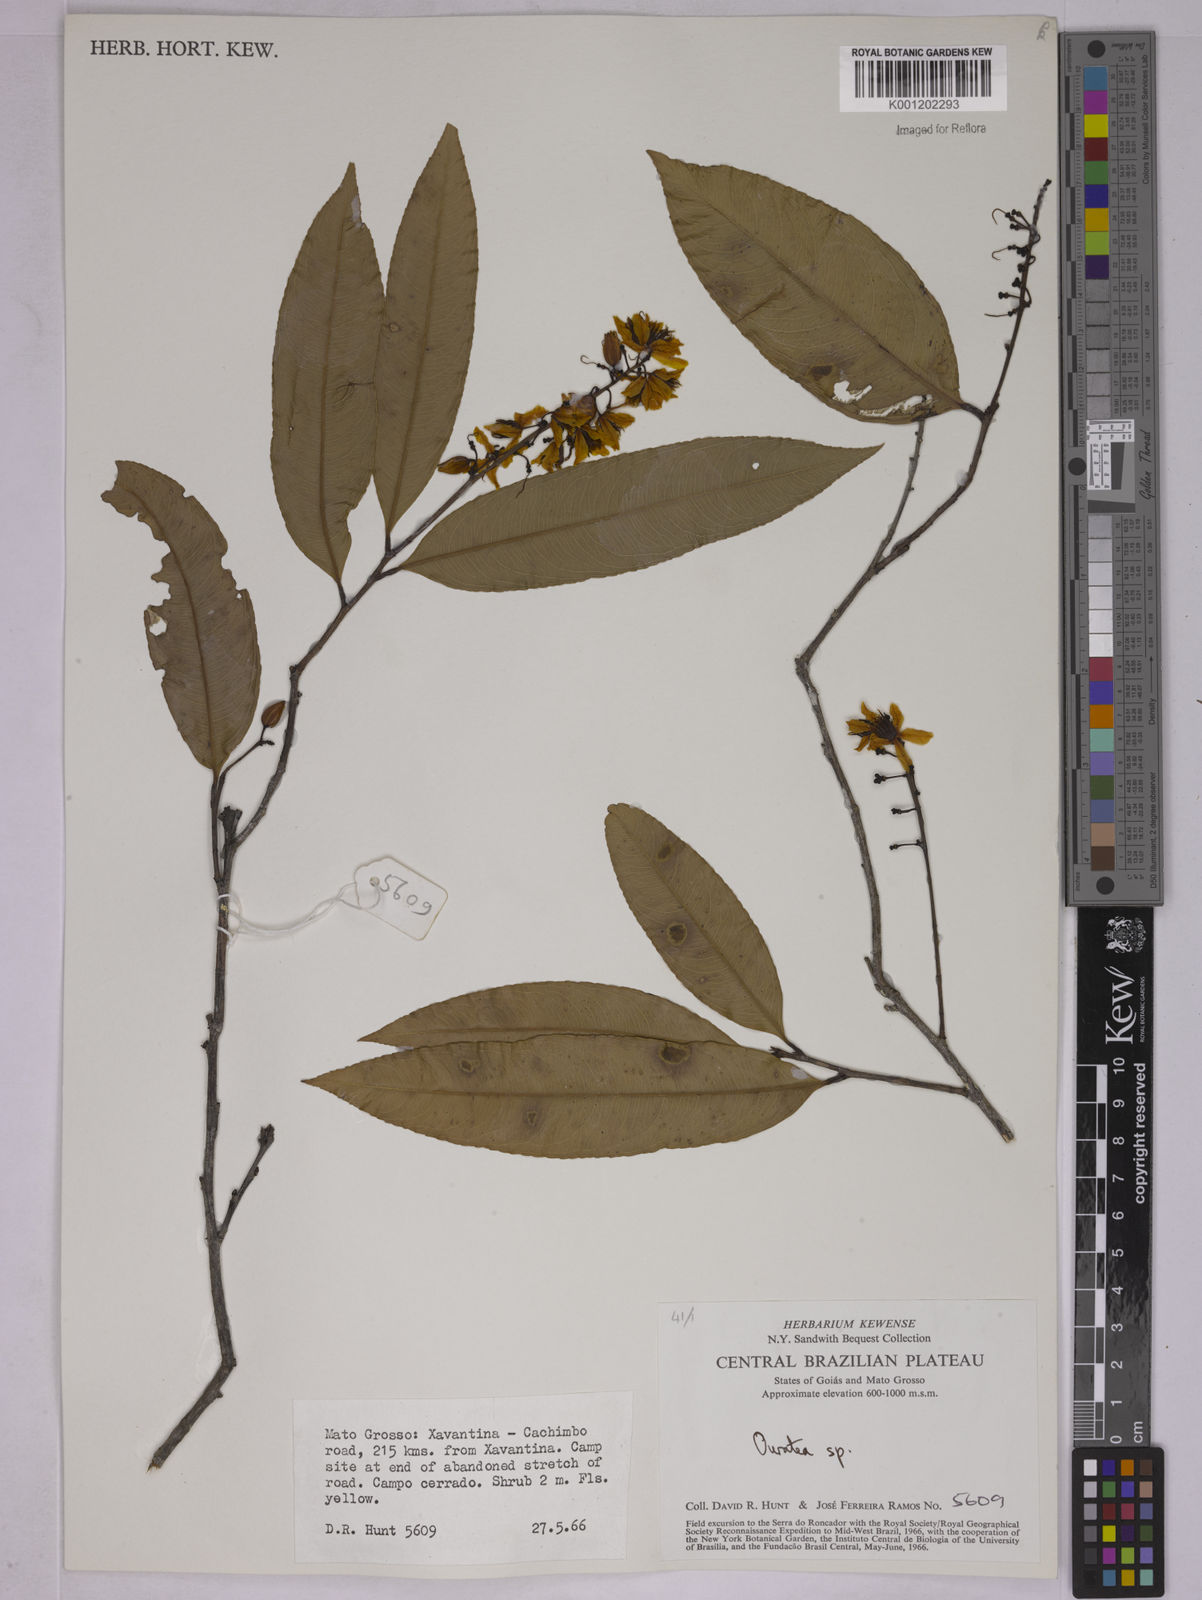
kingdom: Plantae
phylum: Tracheophyta
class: Magnoliopsida
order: Malpighiales
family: Ochnaceae
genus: Ouratea
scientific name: Ouratea
